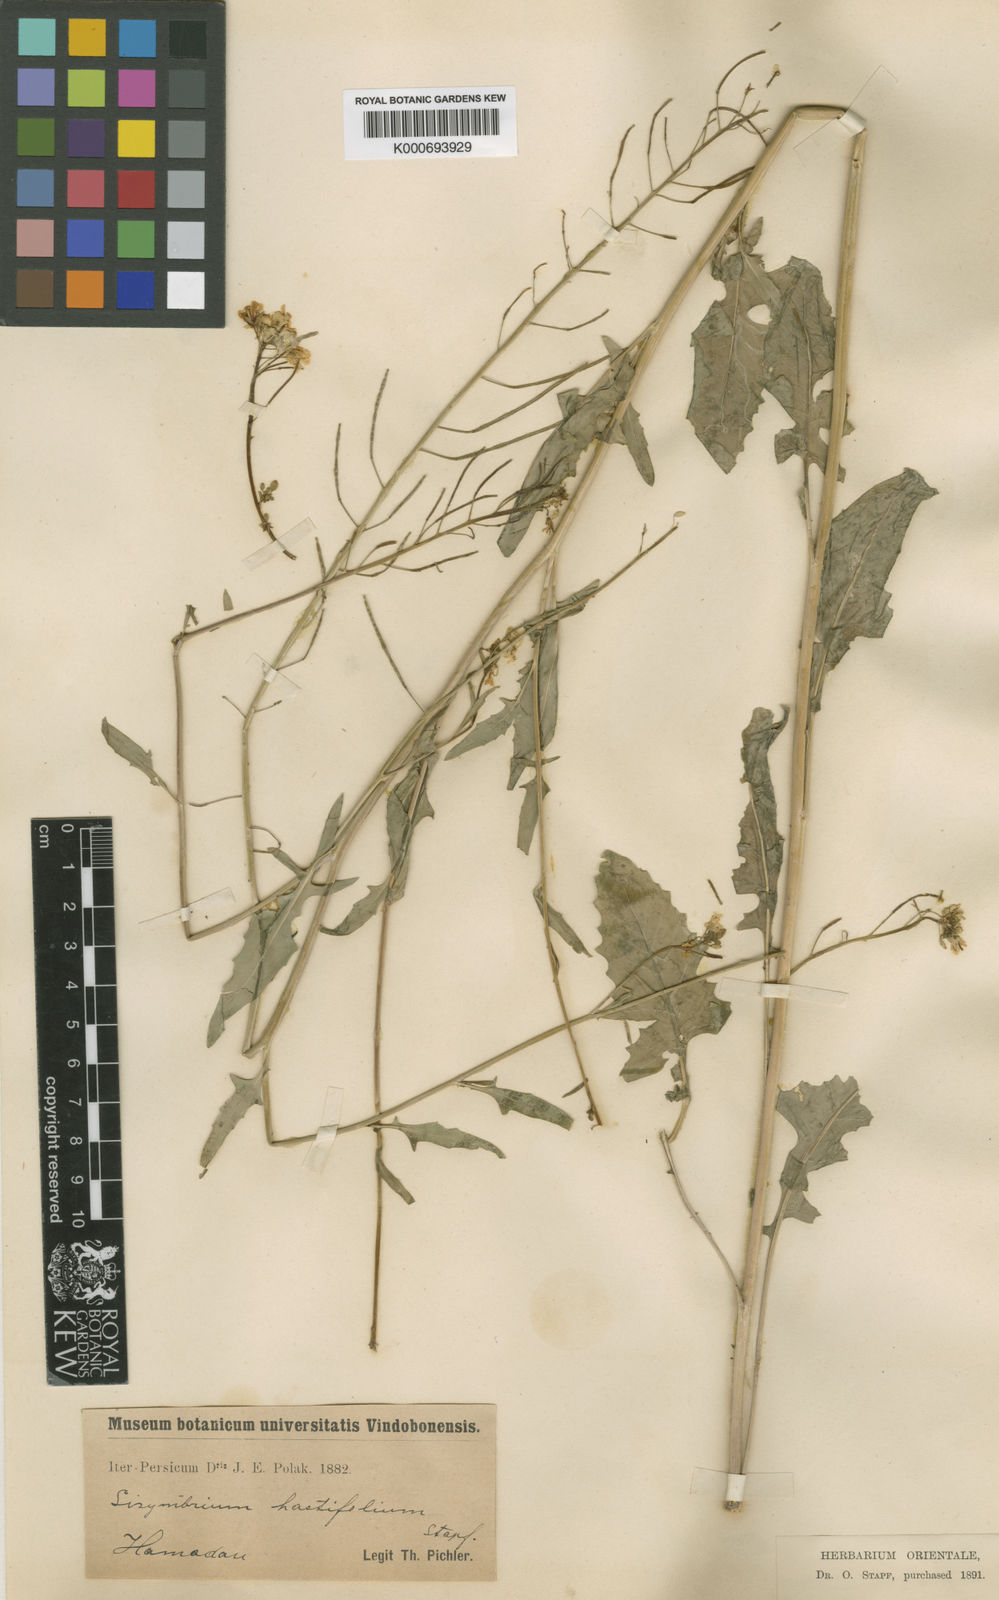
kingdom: Plantae
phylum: Tracheophyta
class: Magnoliopsida
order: Brassicales
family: Brassicaceae
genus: Sisymbrium
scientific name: Sisymbrium loeselii
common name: False london-rocket
